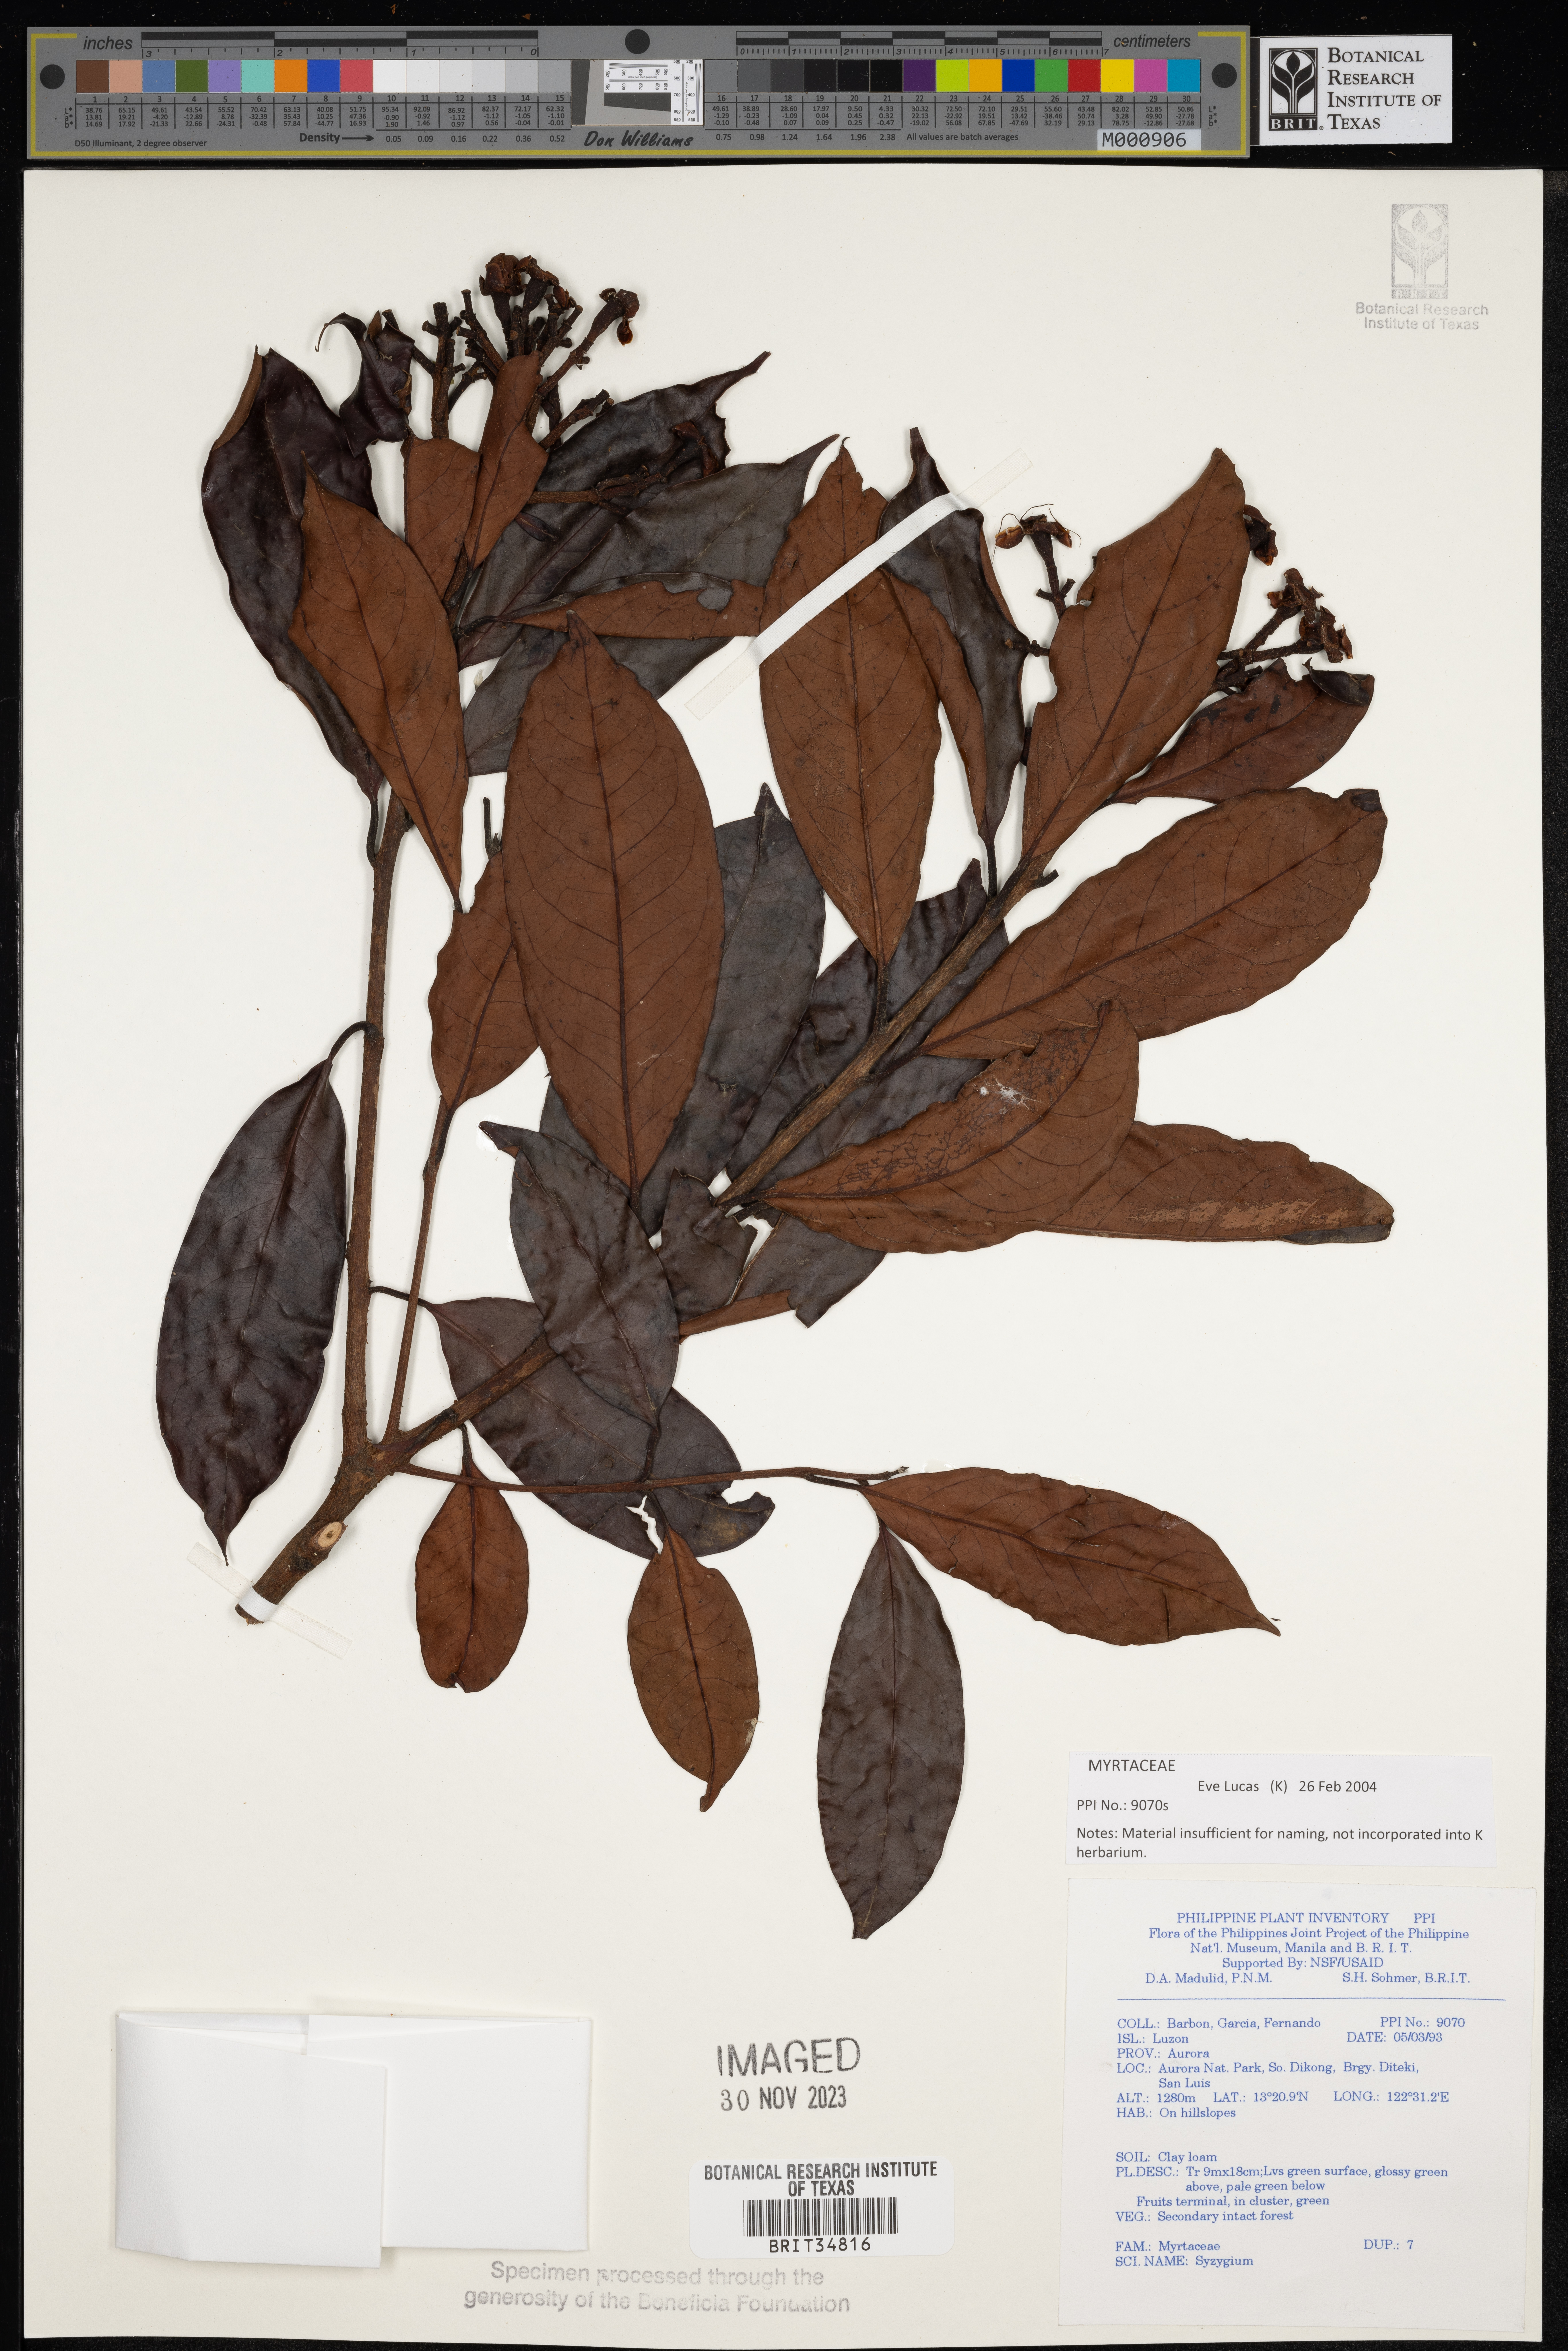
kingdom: Plantae
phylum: Tracheophyta
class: Magnoliopsida
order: Myrtales
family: Myrtaceae
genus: Syzygium
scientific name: Syzygium
